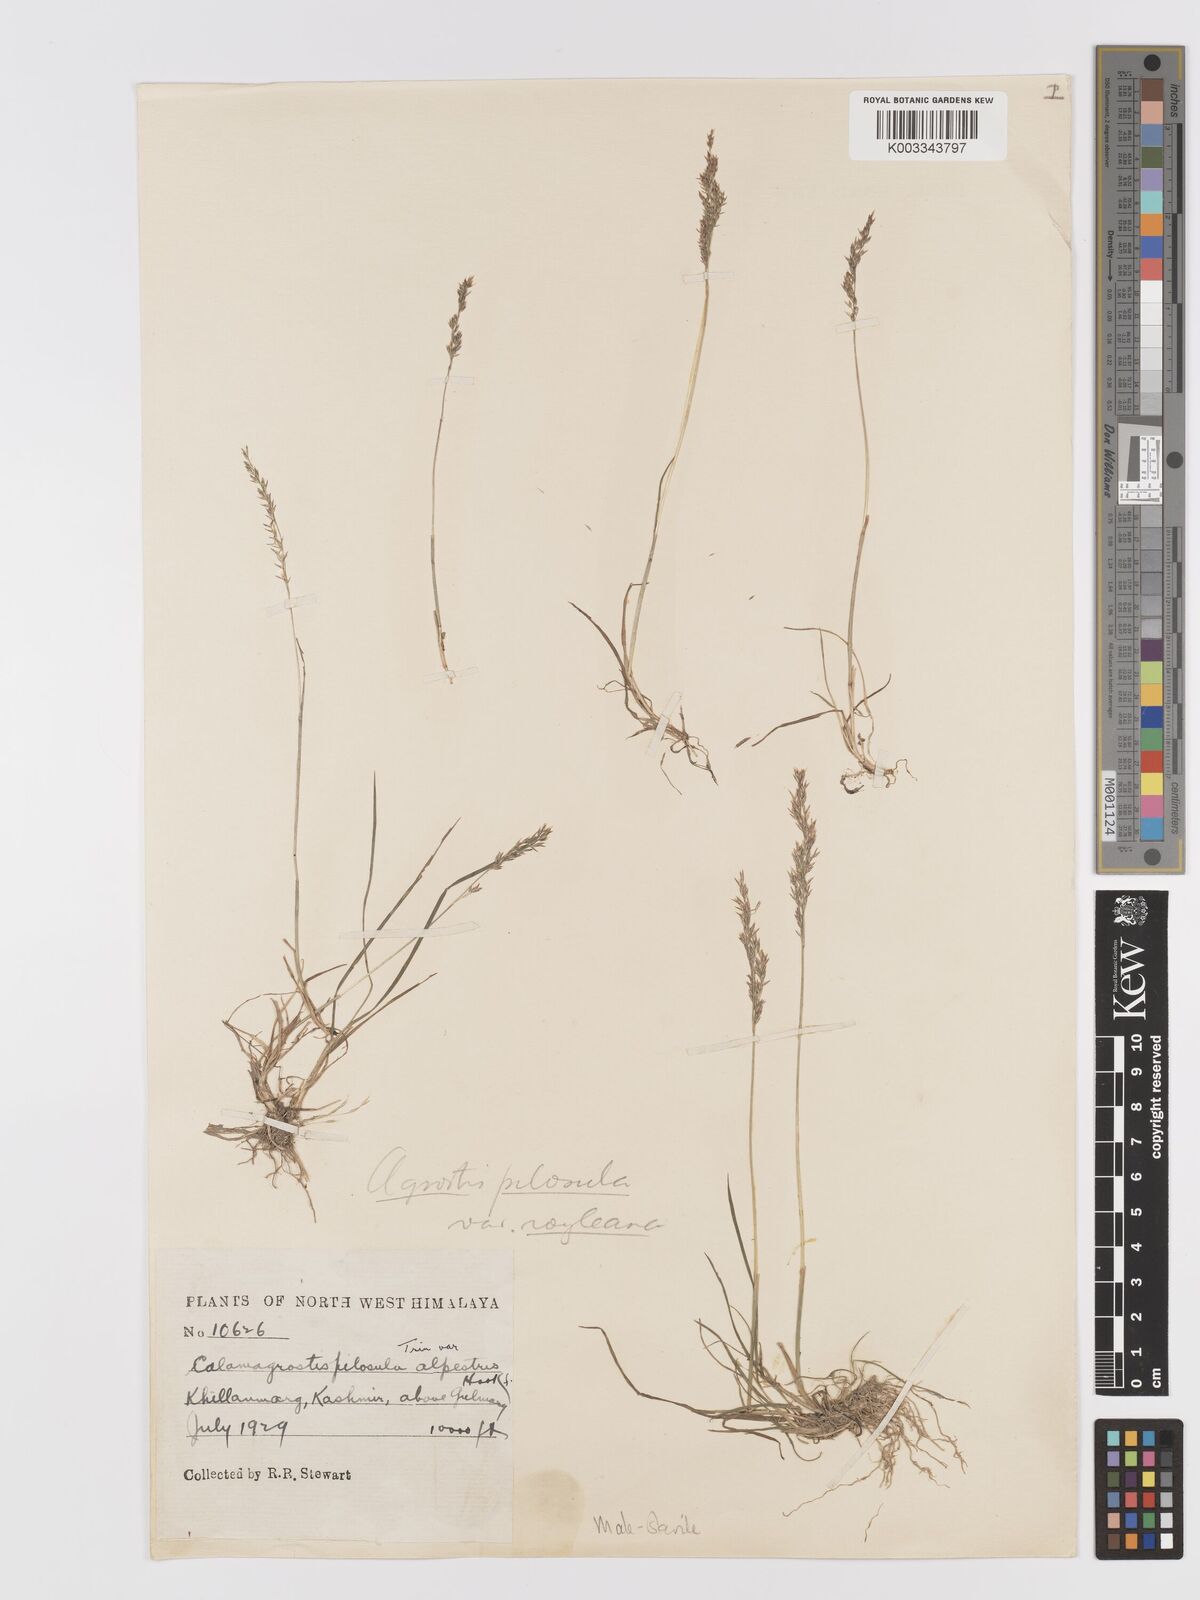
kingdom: Plantae
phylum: Tracheophyta
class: Liliopsida
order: Poales
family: Poaceae
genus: Agrostis
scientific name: Agrostis pilosula
